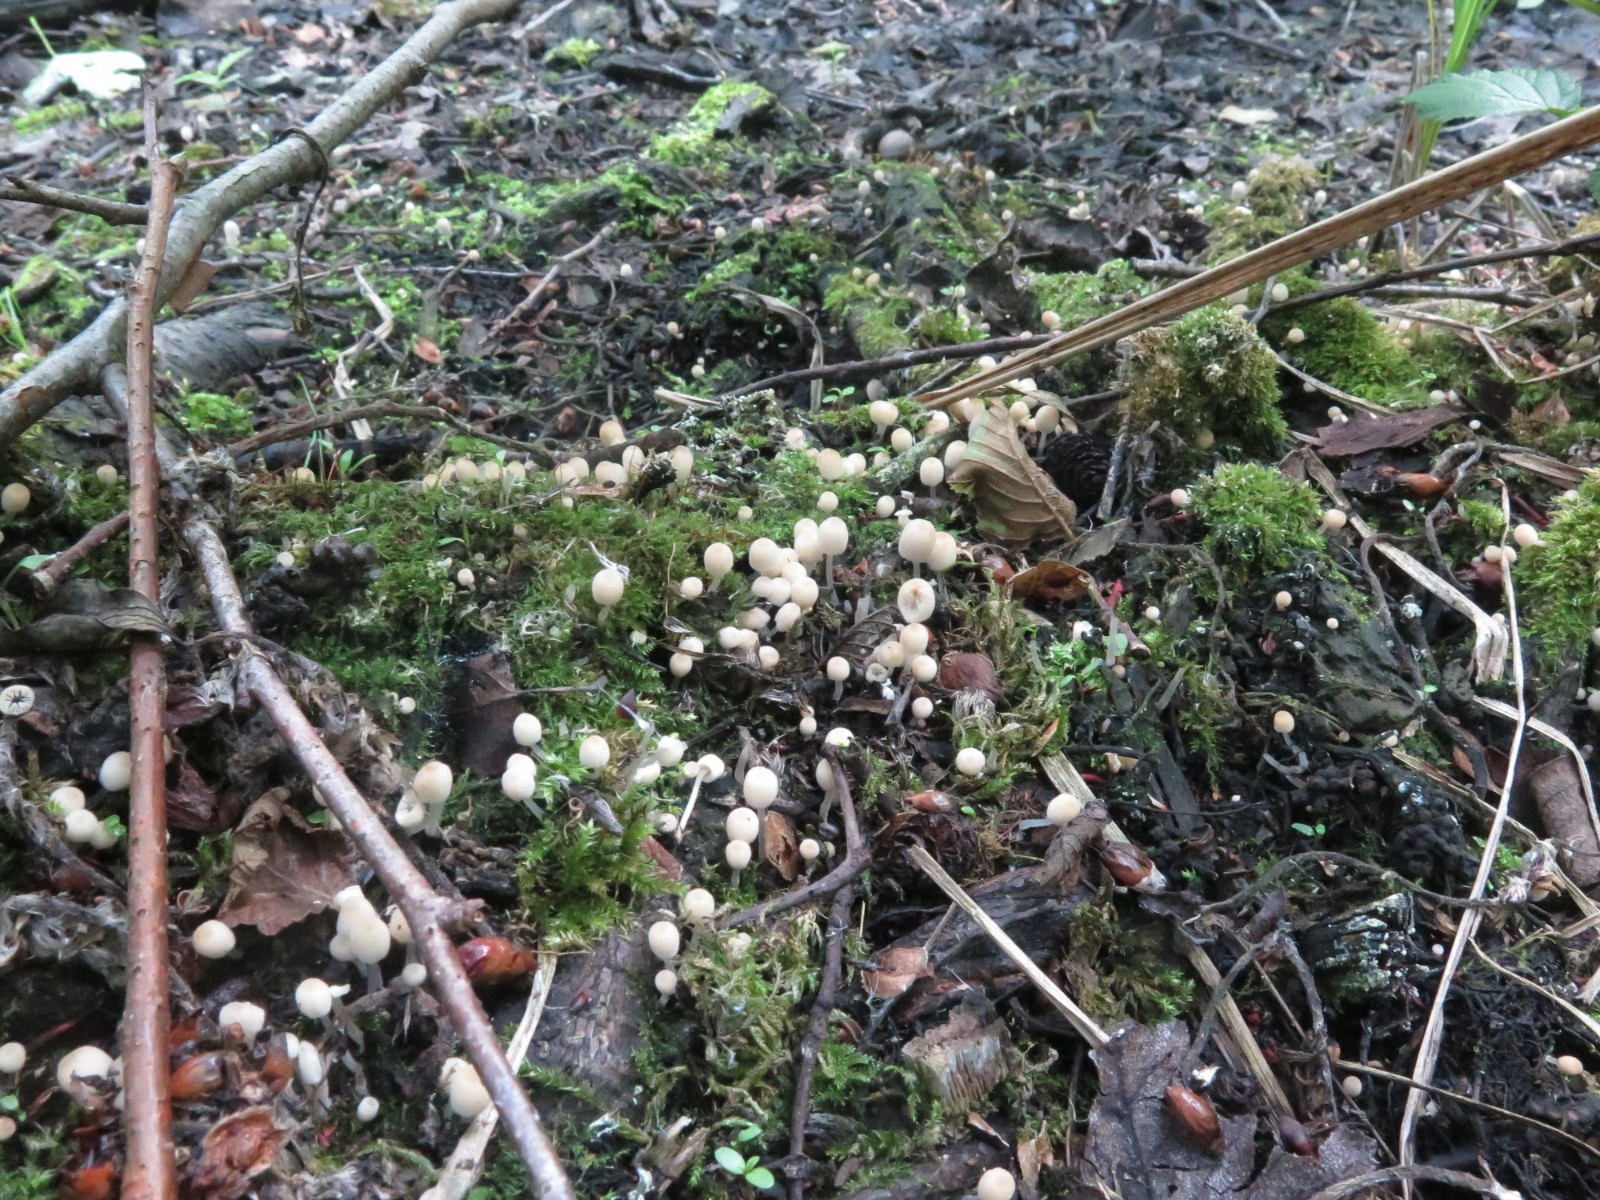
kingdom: Fungi
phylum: Basidiomycota
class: Agaricomycetes
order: Agaricales
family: Psathyrellaceae
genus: Coprinellus
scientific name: Coprinellus disseminatus
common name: bredsået blækhat
